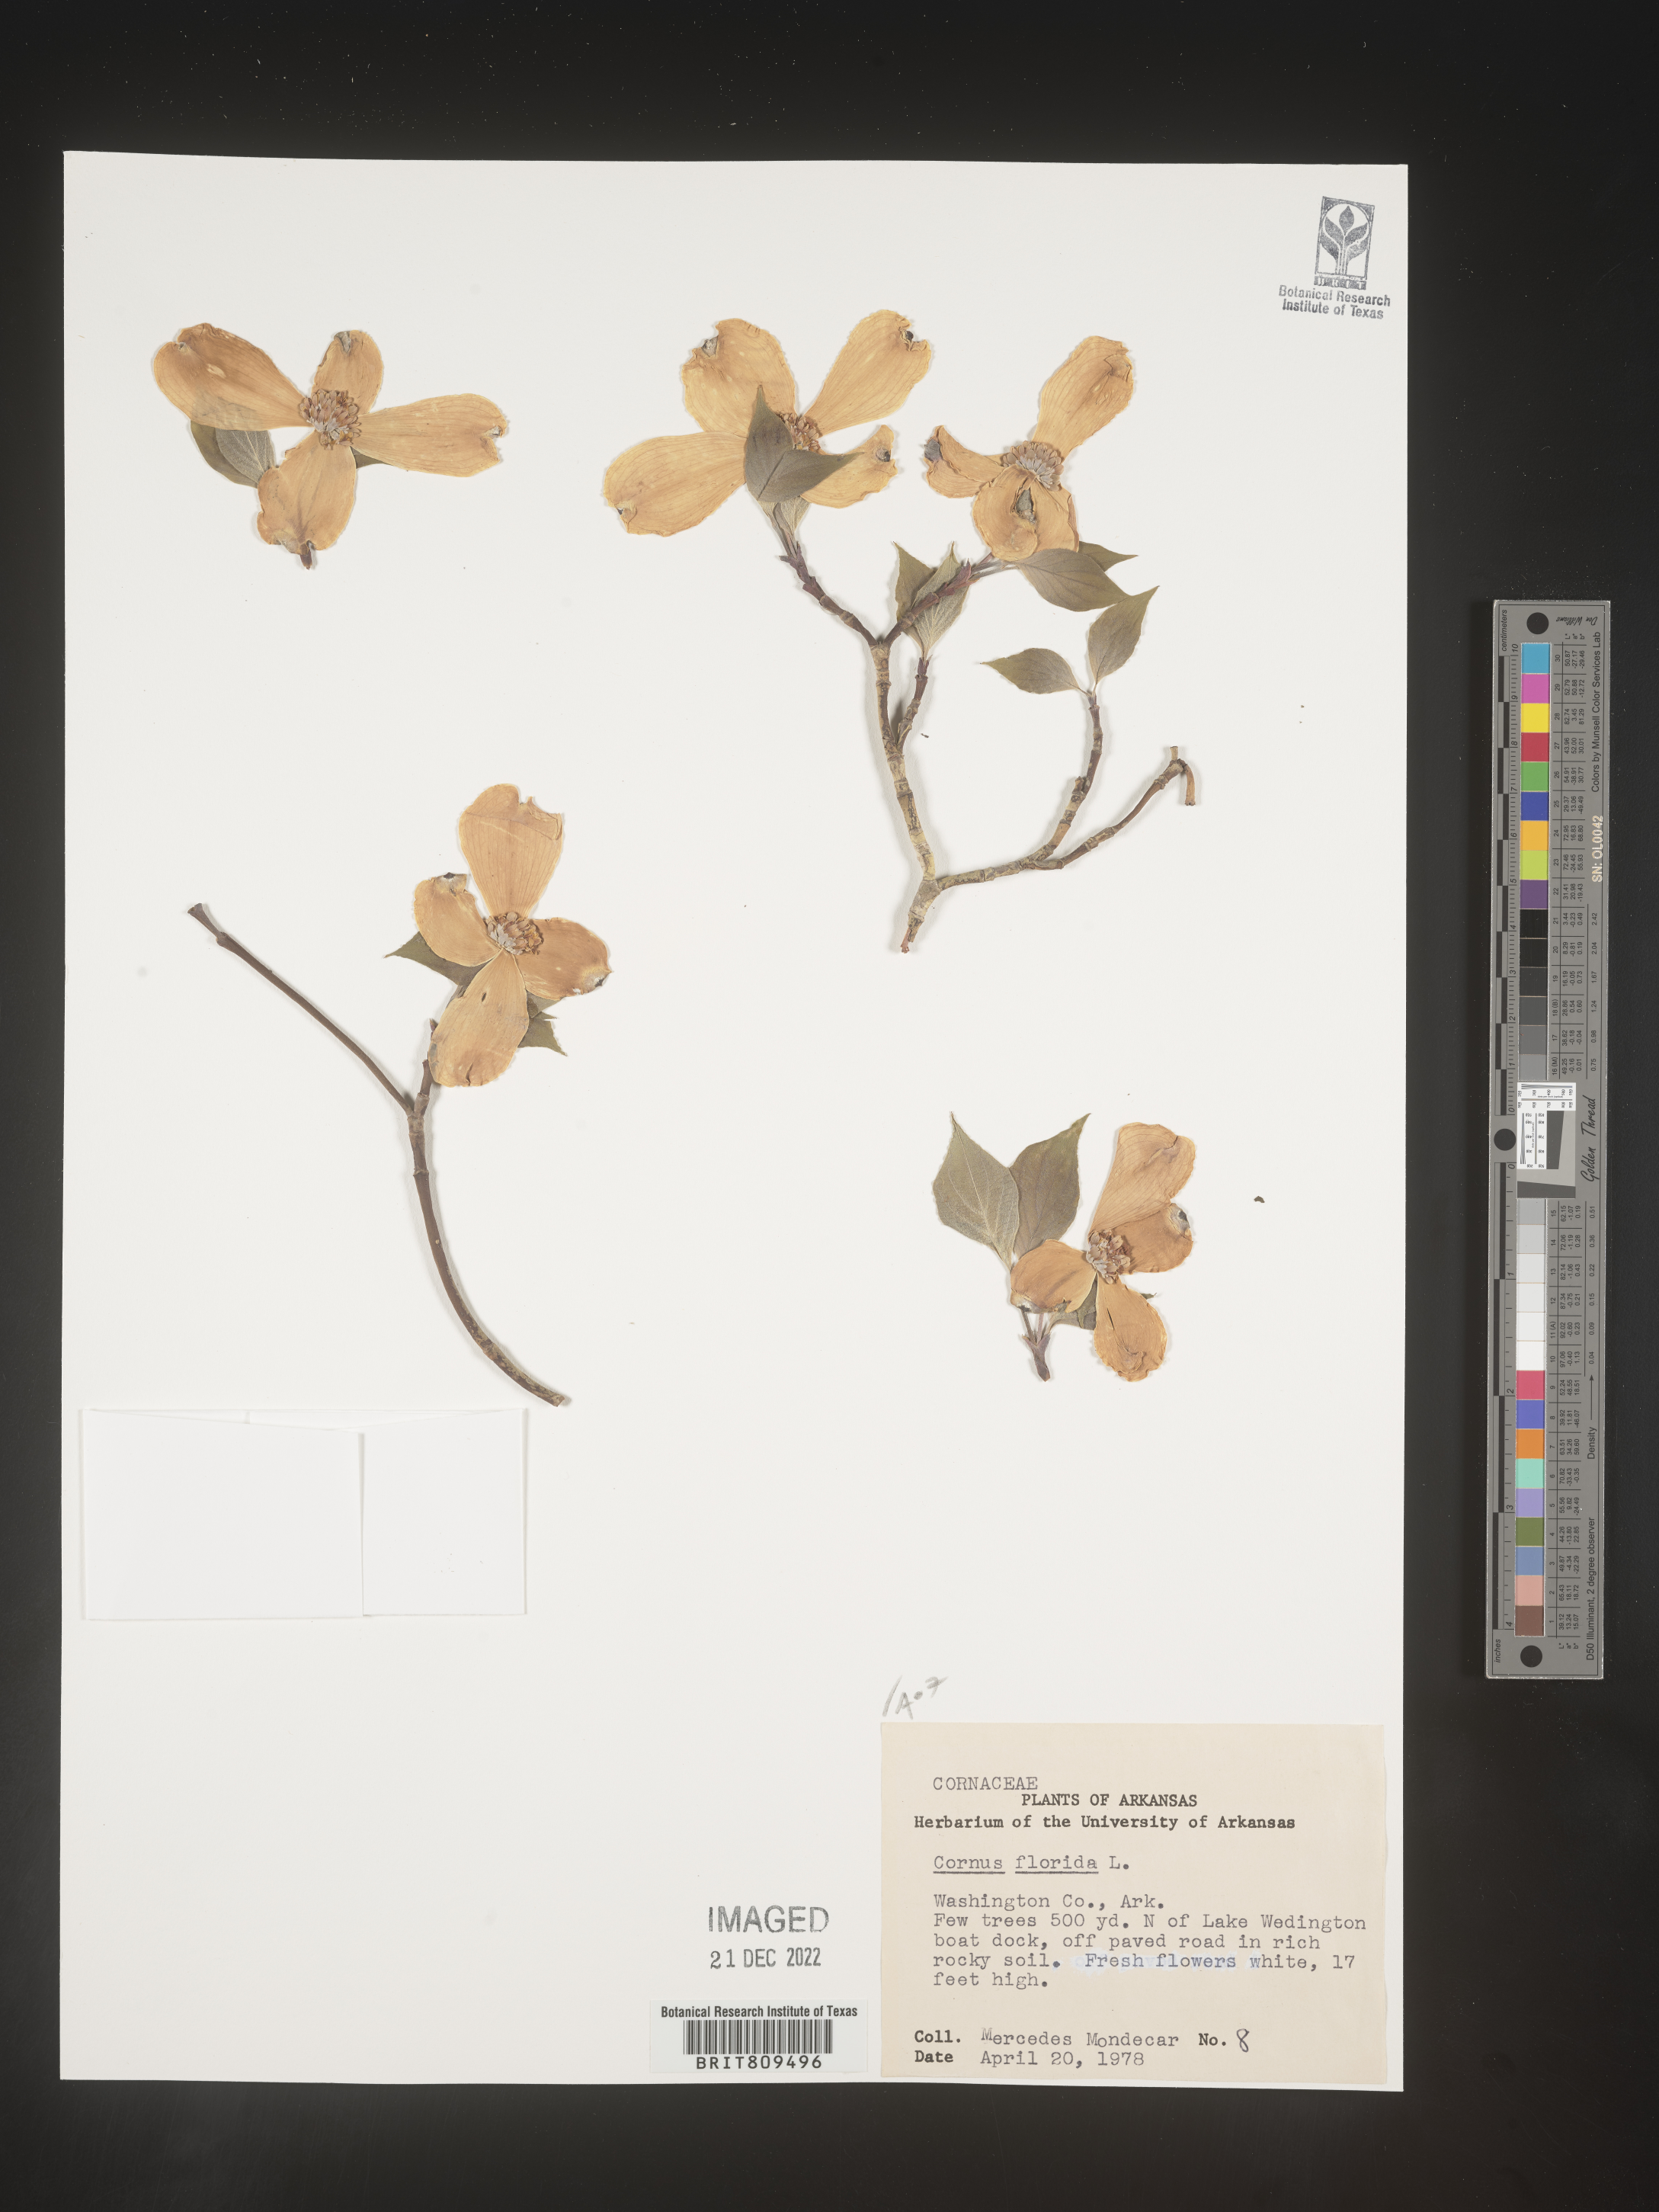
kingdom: Plantae
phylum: Tracheophyta
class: Magnoliopsida
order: Cornales
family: Cornaceae
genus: Cornus
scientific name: Cornus florida
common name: Flowering dogwood
